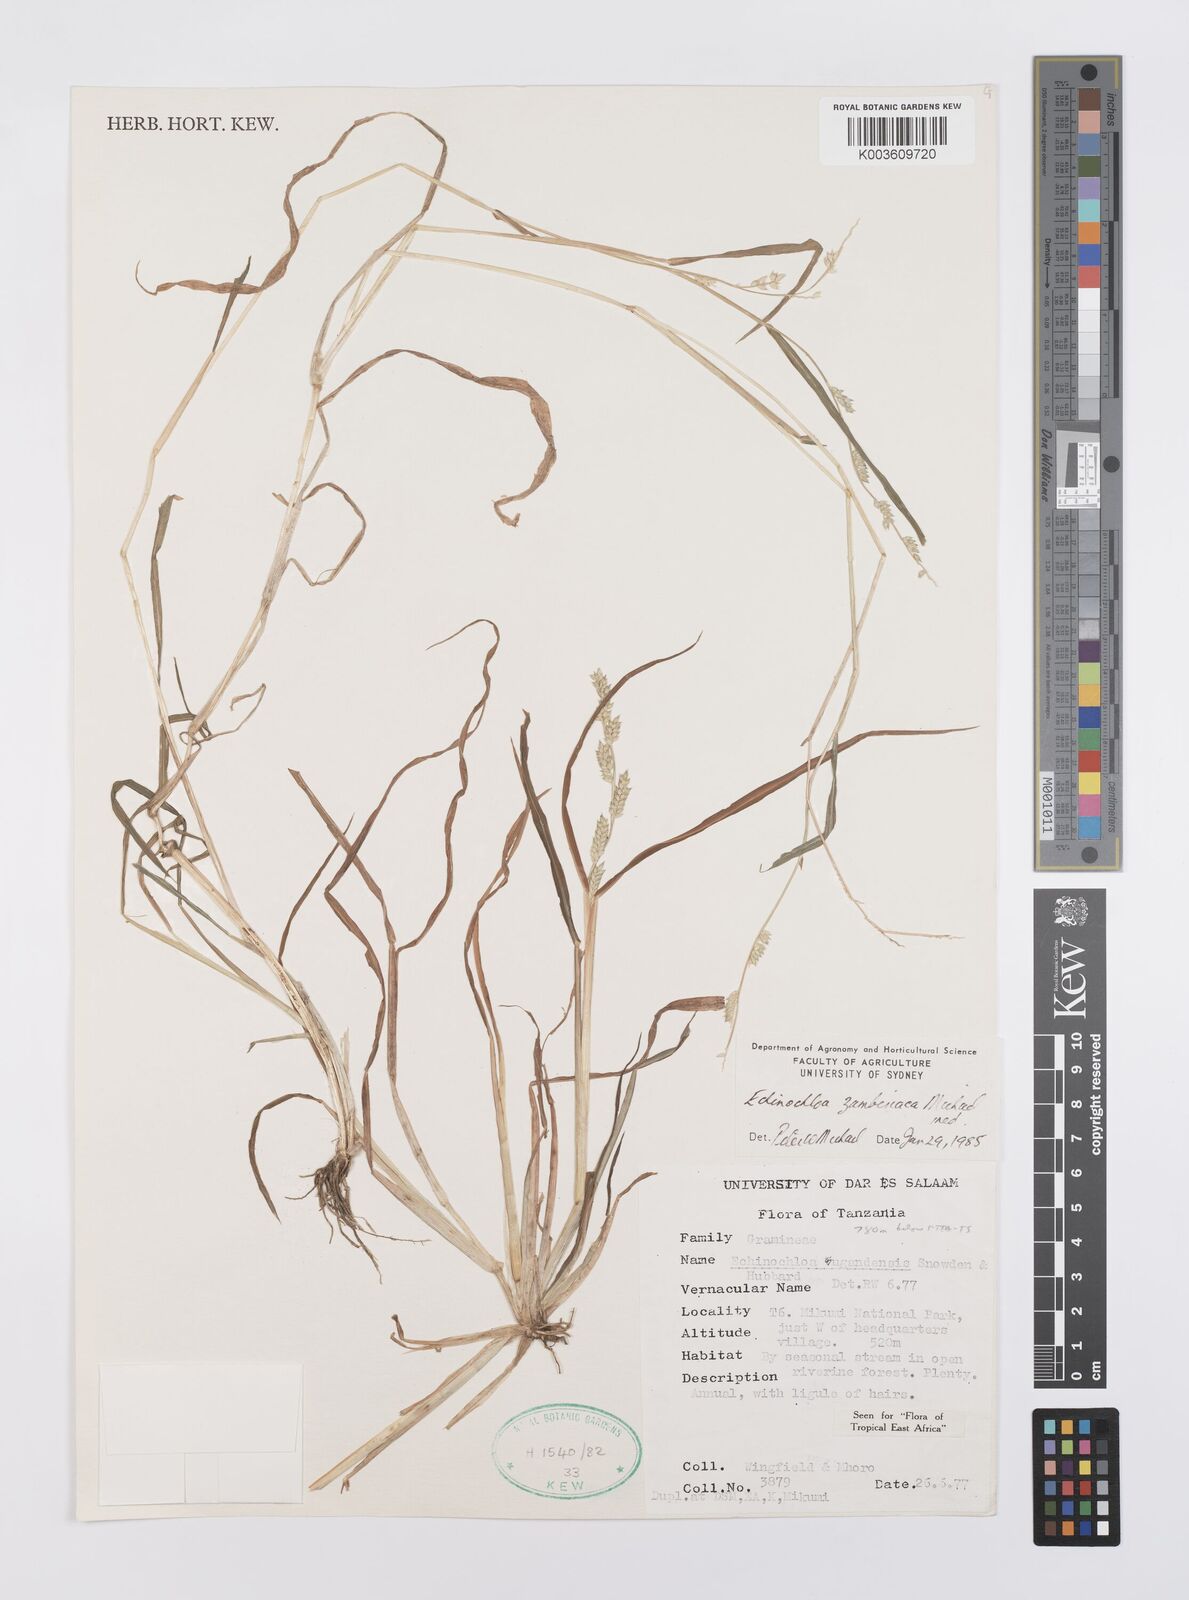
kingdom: Plantae
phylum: Tracheophyta
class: Liliopsida
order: Poales
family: Poaceae
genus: Echinochloa
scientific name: Echinochloa ugandensis
